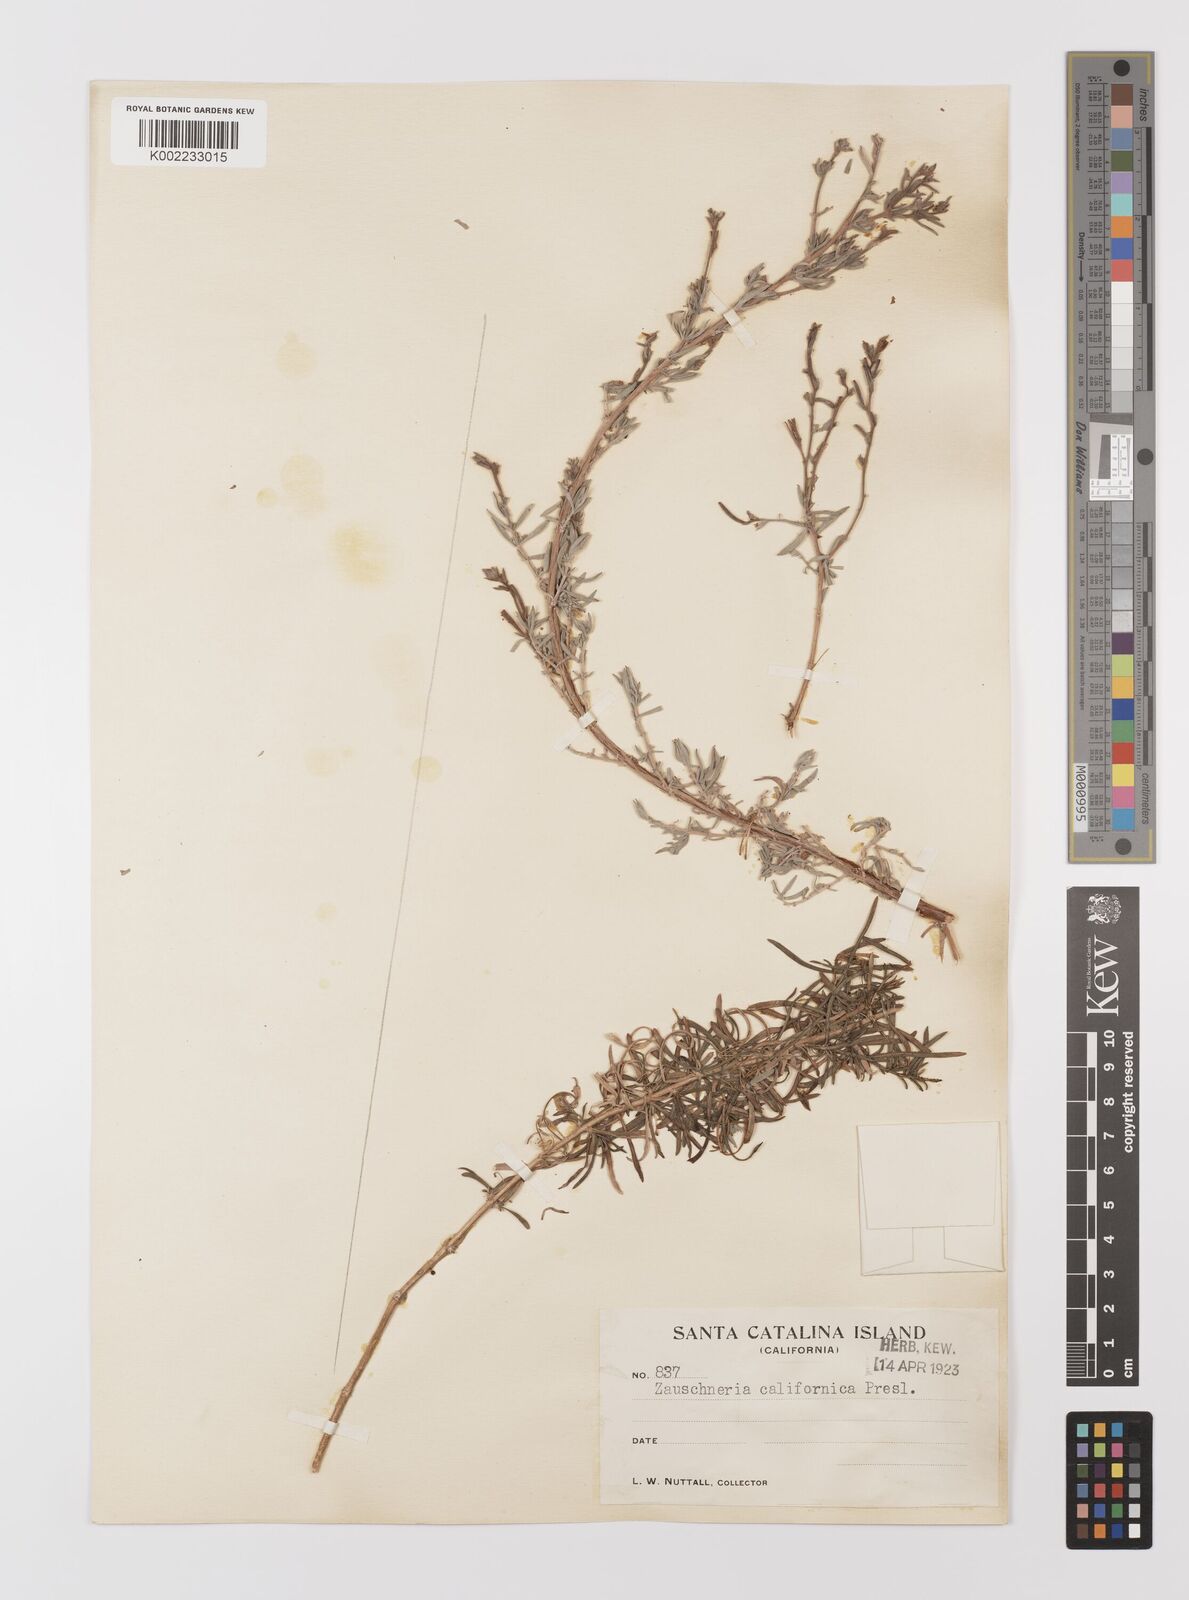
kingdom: Plantae
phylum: Tracheophyta
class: Magnoliopsida
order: Myrtales
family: Onagraceae
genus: Epilobium
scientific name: Epilobium canum
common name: California-fuchsia
